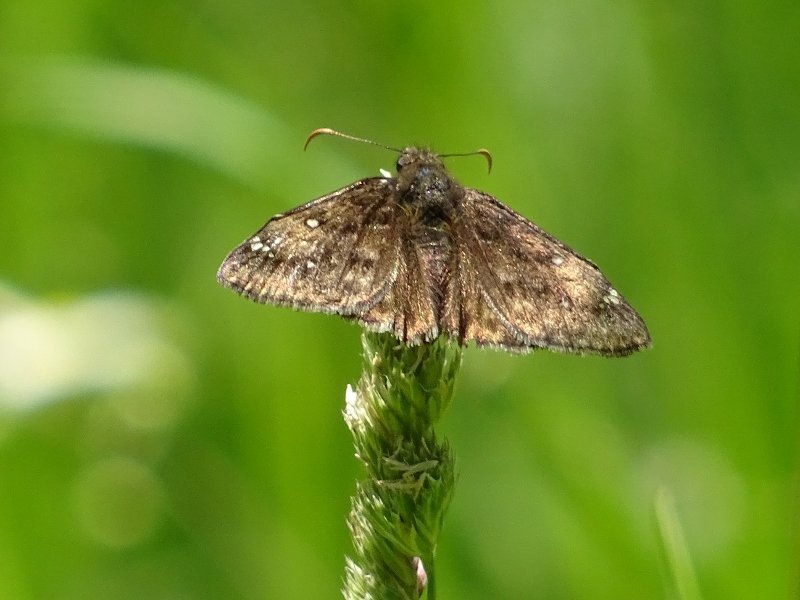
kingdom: Animalia
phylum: Arthropoda
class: Insecta
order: Lepidoptera
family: Hesperiidae
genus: Gesta
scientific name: Gesta
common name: Juvenal's Duskywing
